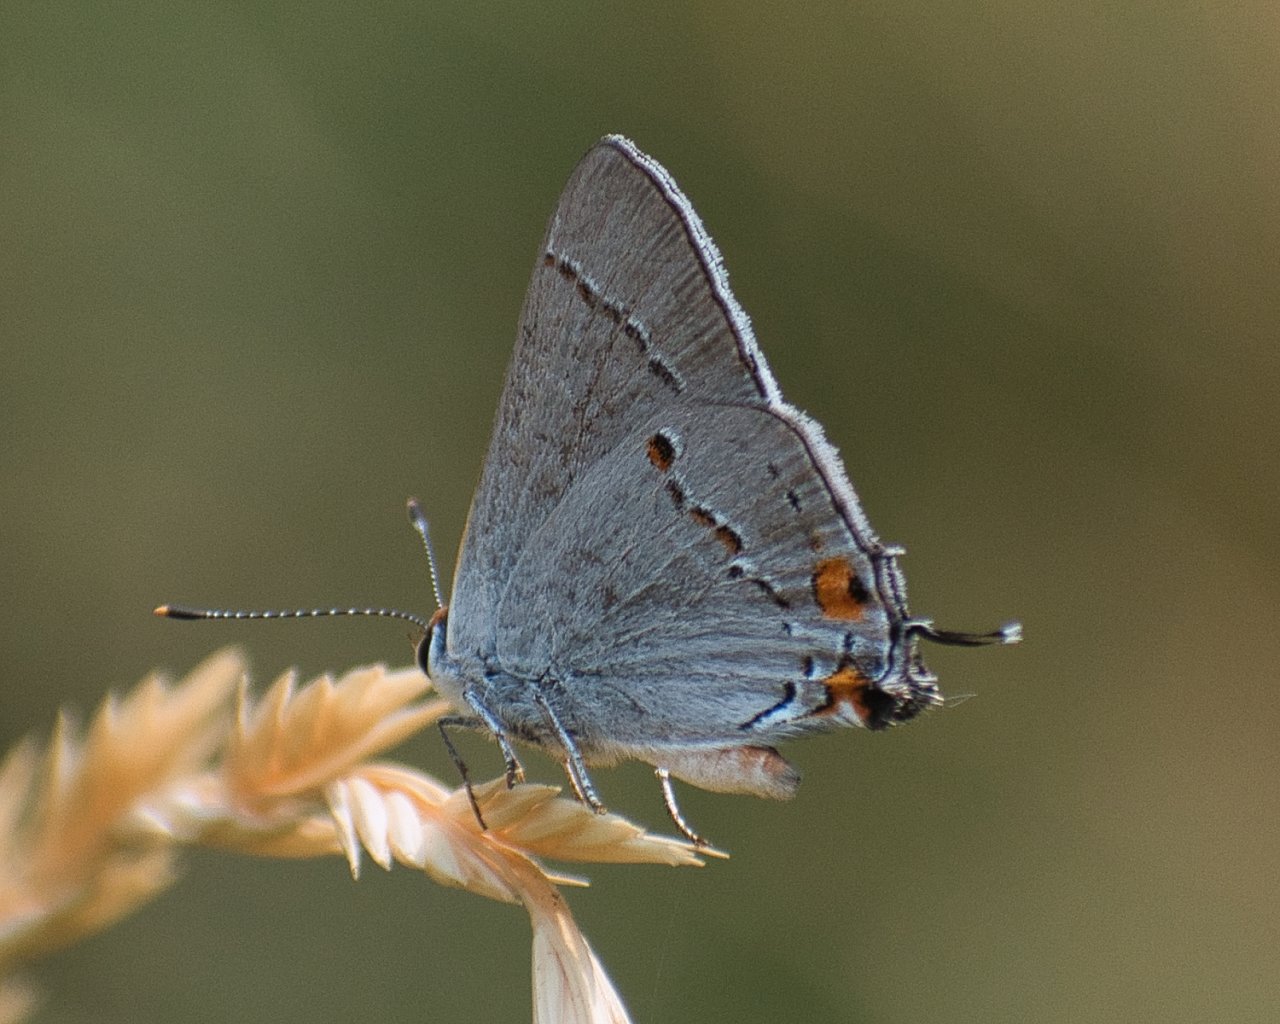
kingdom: Animalia
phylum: Arthropoda
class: Insecta
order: Lepidoptera
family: Lycaenidae
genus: Strymon
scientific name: Strymon melinus
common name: Gray Hairstreak
